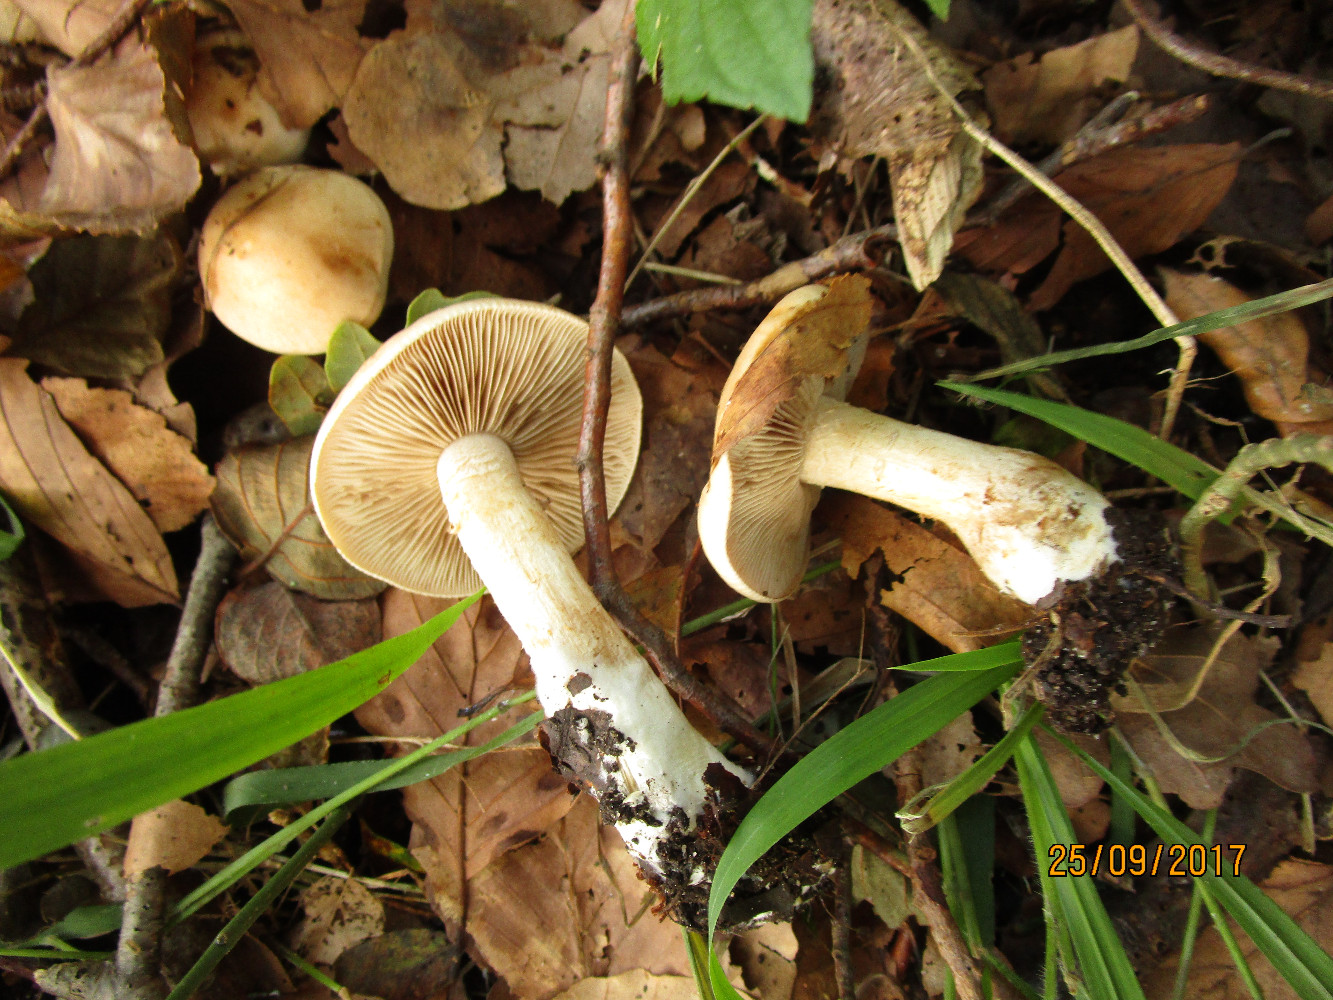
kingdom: Fungi
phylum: Basidiomycota
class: Agaricomycetes
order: Agaricales
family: Hymenogastraceae
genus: Hebeloma
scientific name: Hebeloma laterinum
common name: kakao-tåreblad
